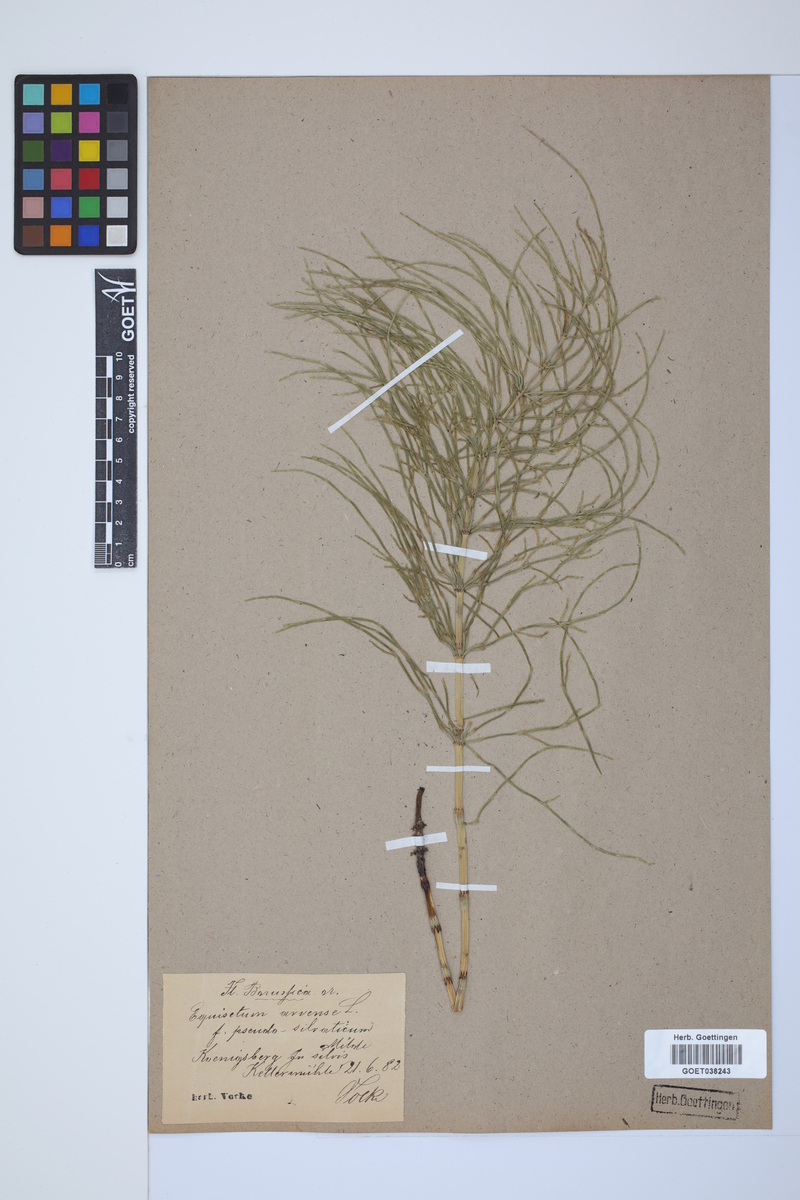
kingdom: Plantae
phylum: Tracheophyta
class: Polypodiopsida
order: Equisetales
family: Equisetaceae
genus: Equisetum
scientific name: Equisetum arvense
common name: Field horsetail
